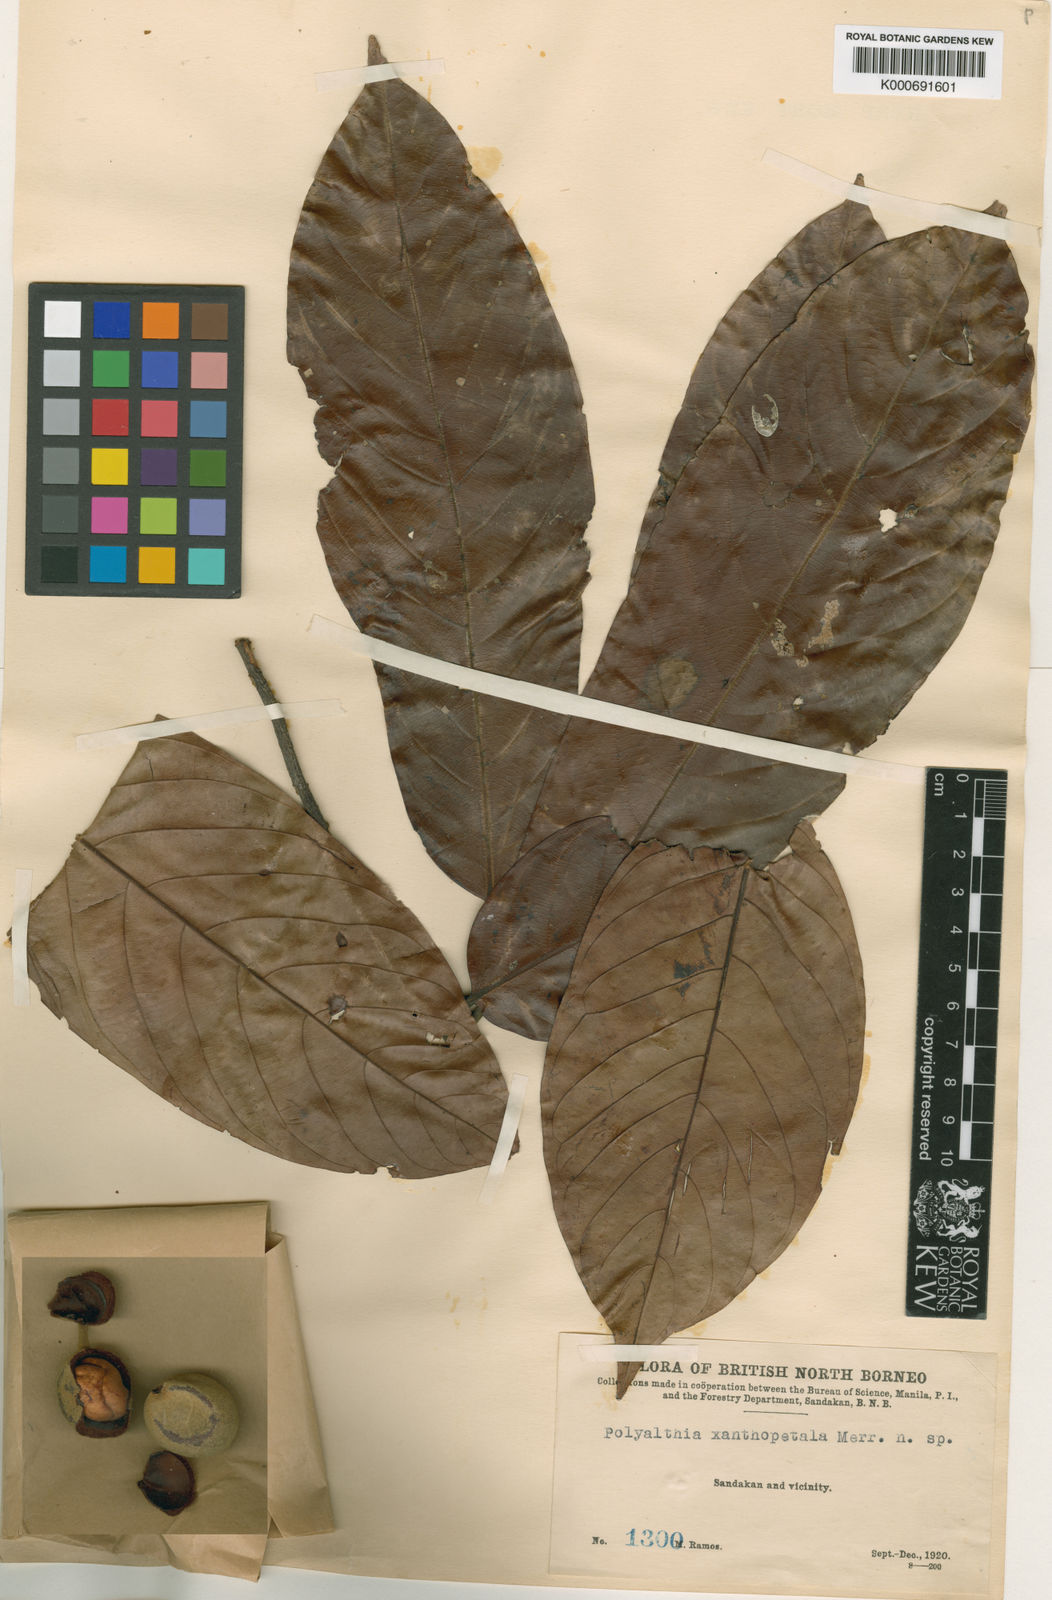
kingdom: Plantae
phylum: Tracheophyta
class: Magnoliopsida
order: Magnoliales
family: Annonaceae
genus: Anaxagorea
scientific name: Anaxagorea javanica
